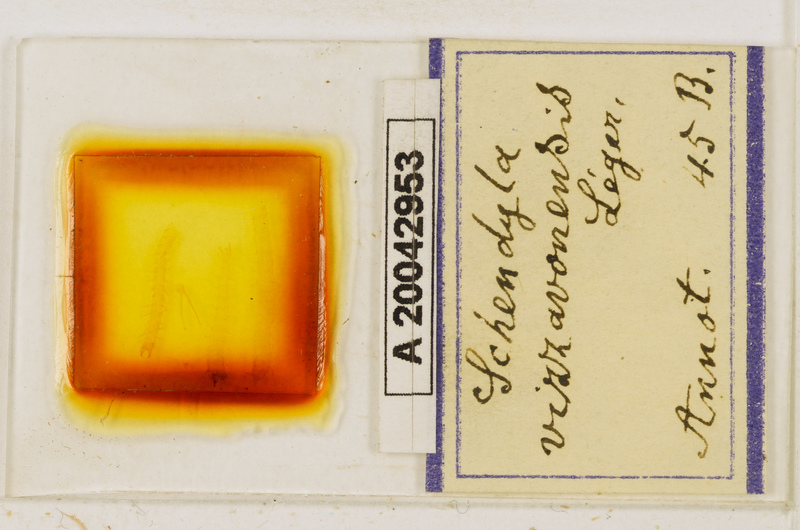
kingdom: Animalia
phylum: Arthropoda
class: Chilopoda
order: Geophilomorpha
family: Schendylidae
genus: Schendyla
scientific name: Schendyla vizzavonae
